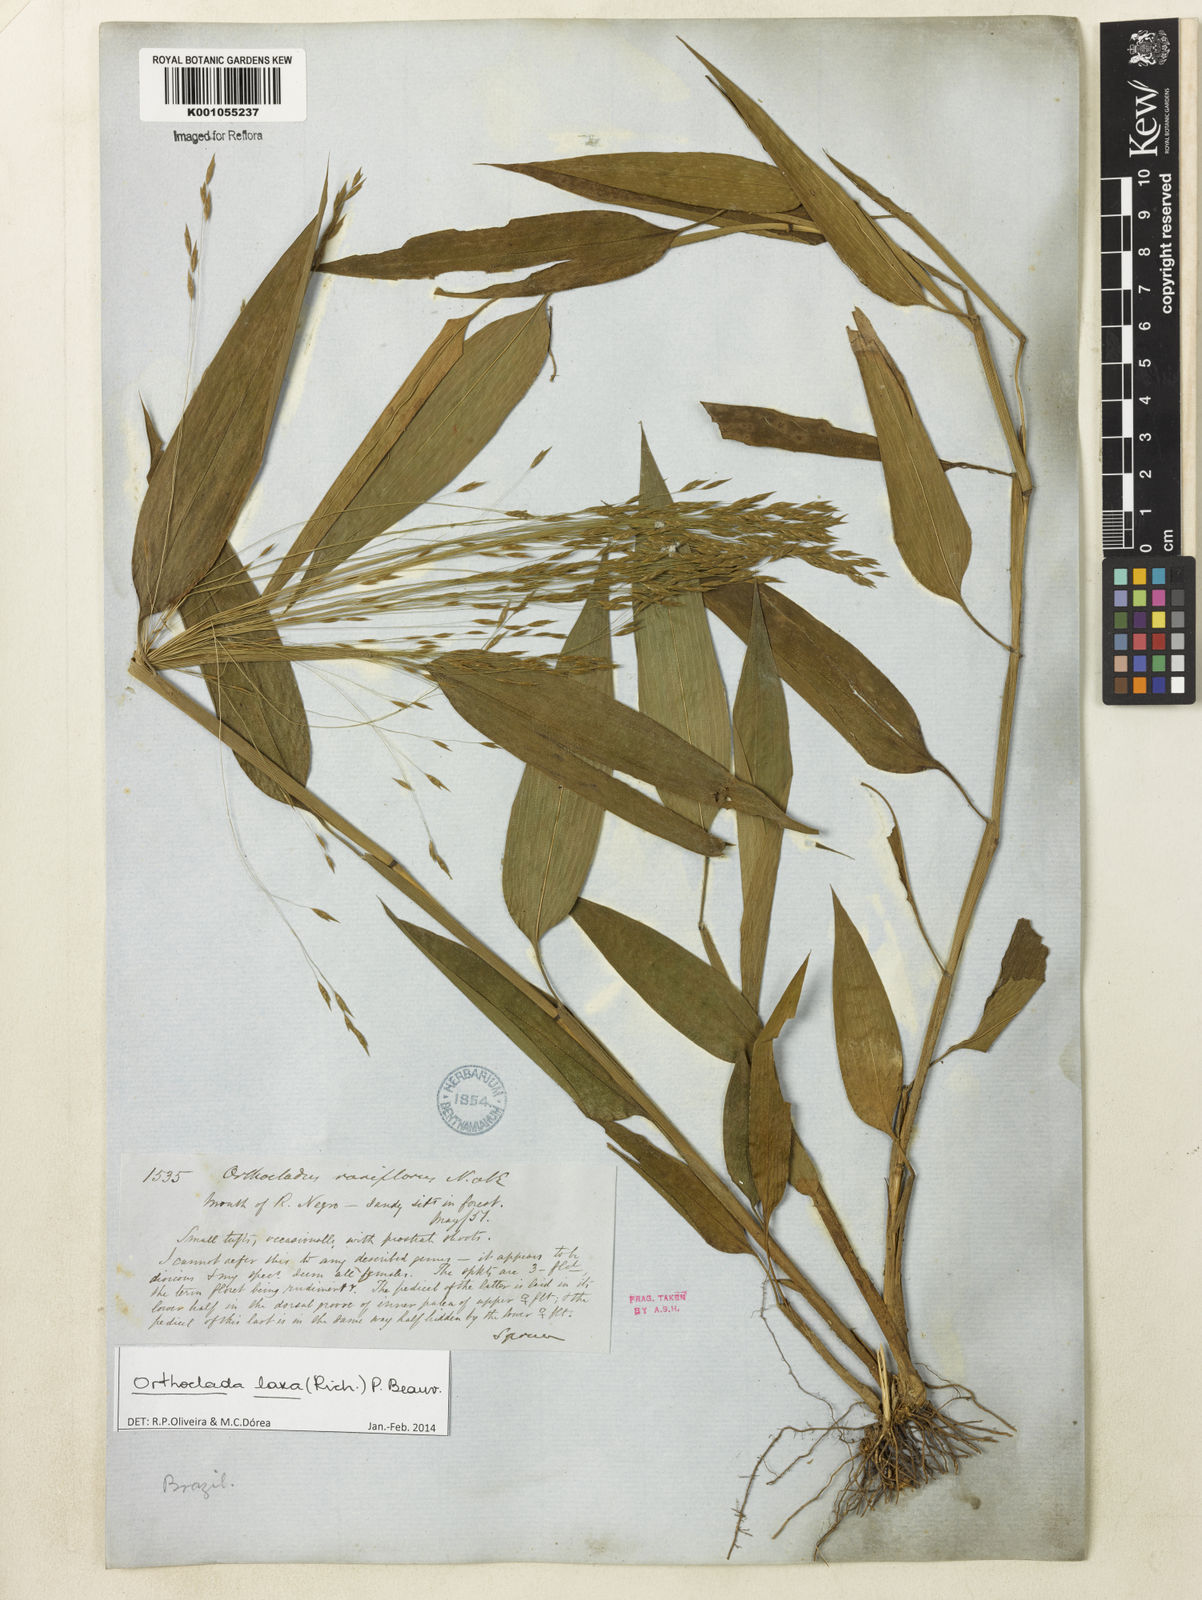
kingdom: Plantae
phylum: Tracheophyta
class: Liliopsida
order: Poales
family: Poaceae
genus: Orthoclada
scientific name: Orthoclada laxa
